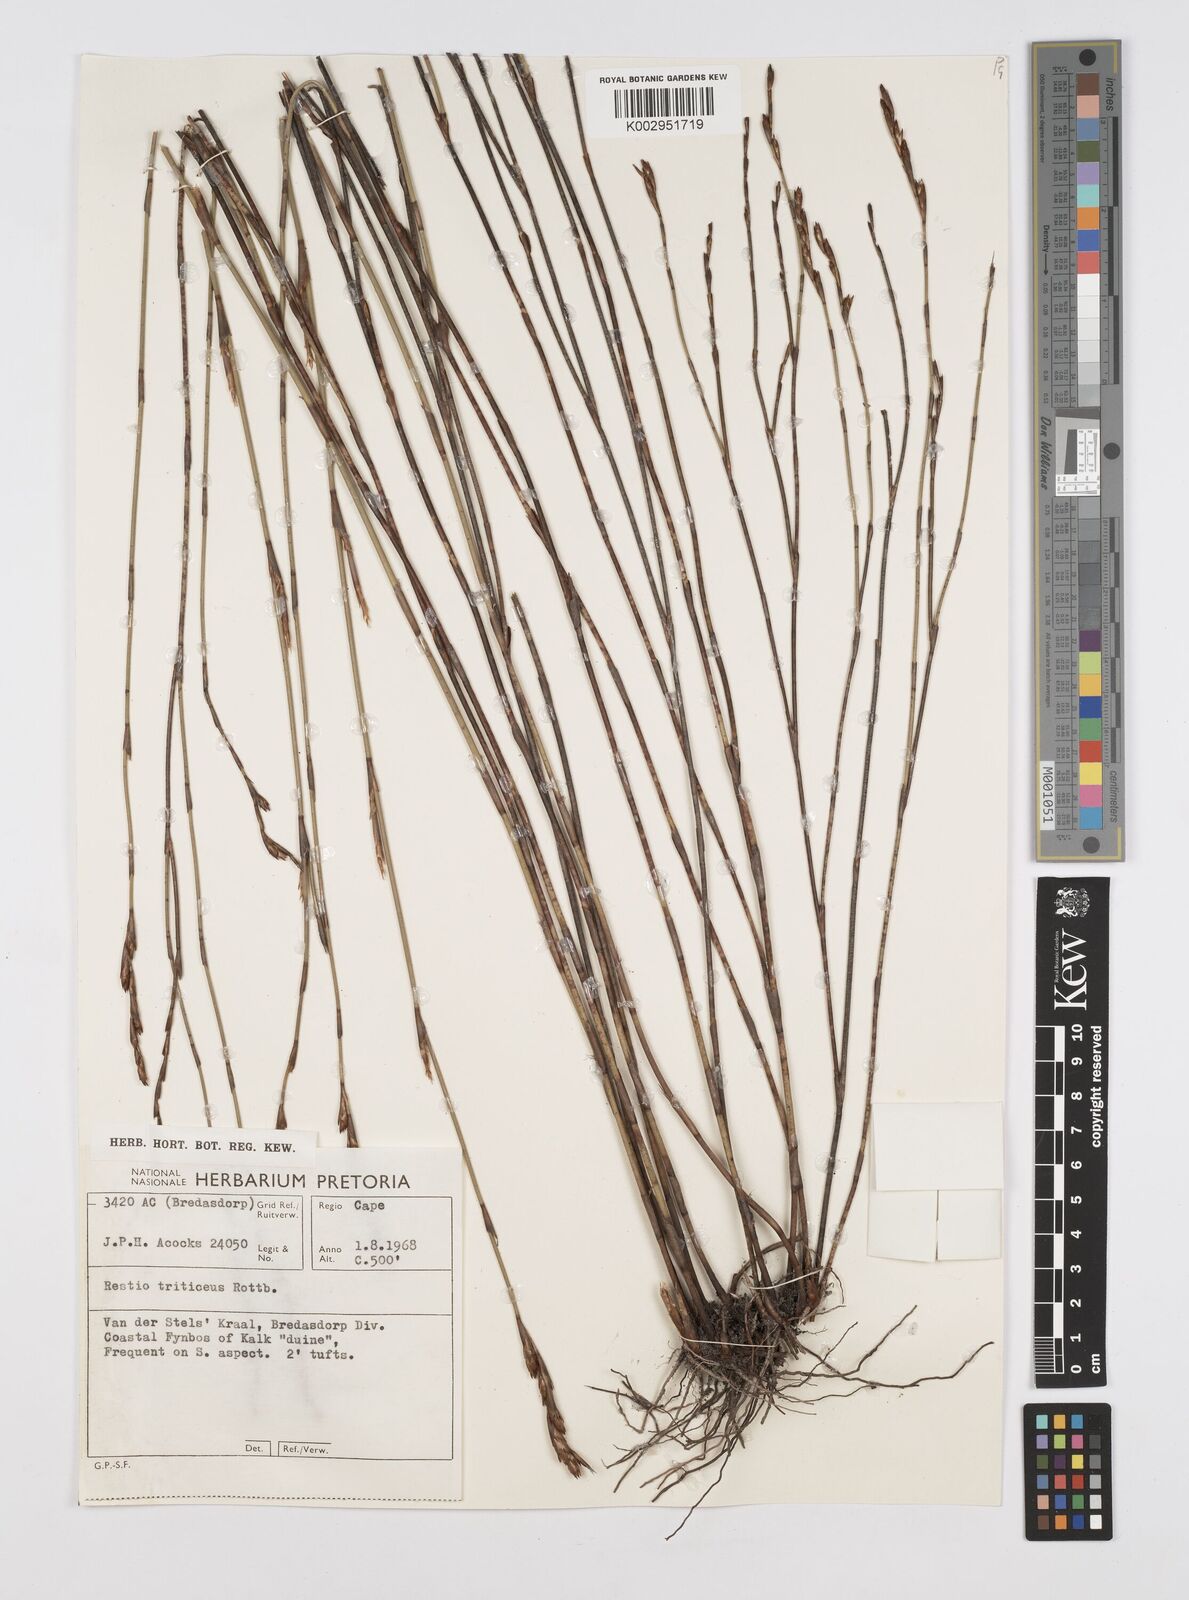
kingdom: Plantae
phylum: Tracheophyta
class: Liliopsida
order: Poales
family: Restionaceae
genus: Restio
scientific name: Restio triticeus
